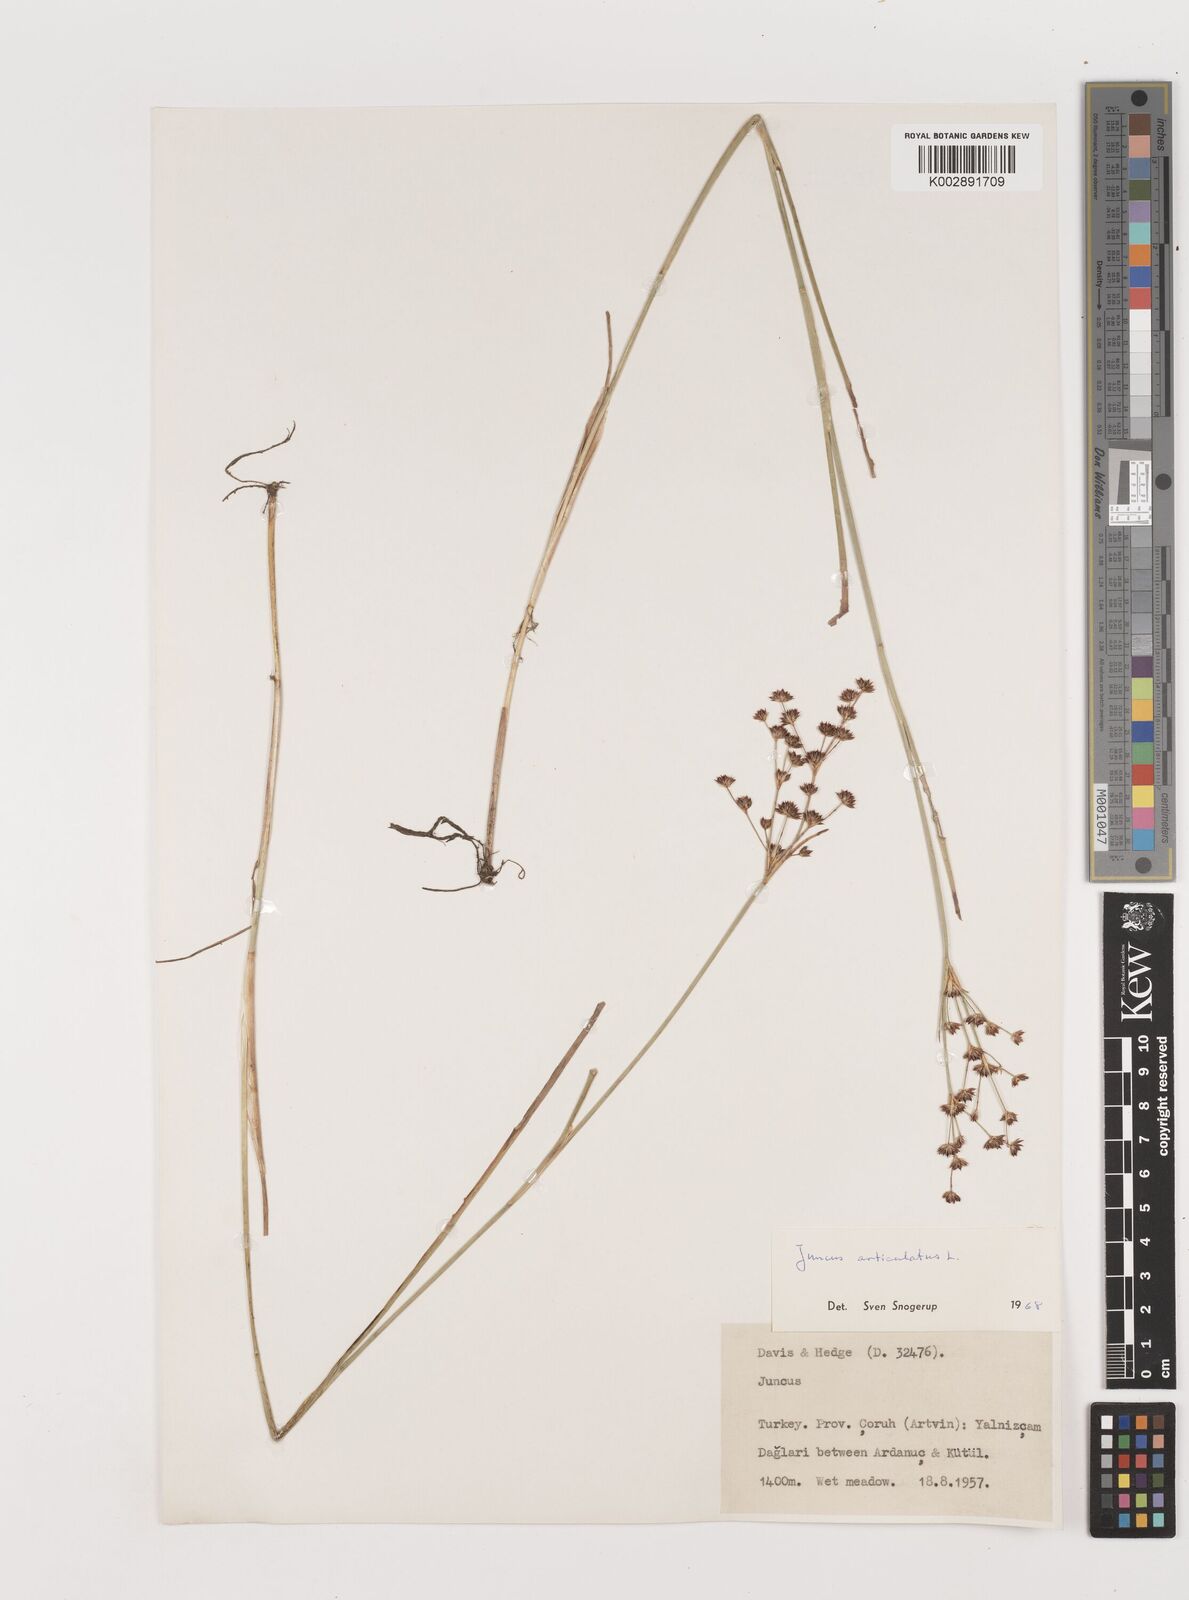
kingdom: Plantae
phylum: Tracheophyta
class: Liliopsida
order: Poales
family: Juncaceae
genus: Juncus
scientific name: Juncus articulatus
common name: Jointed rush
